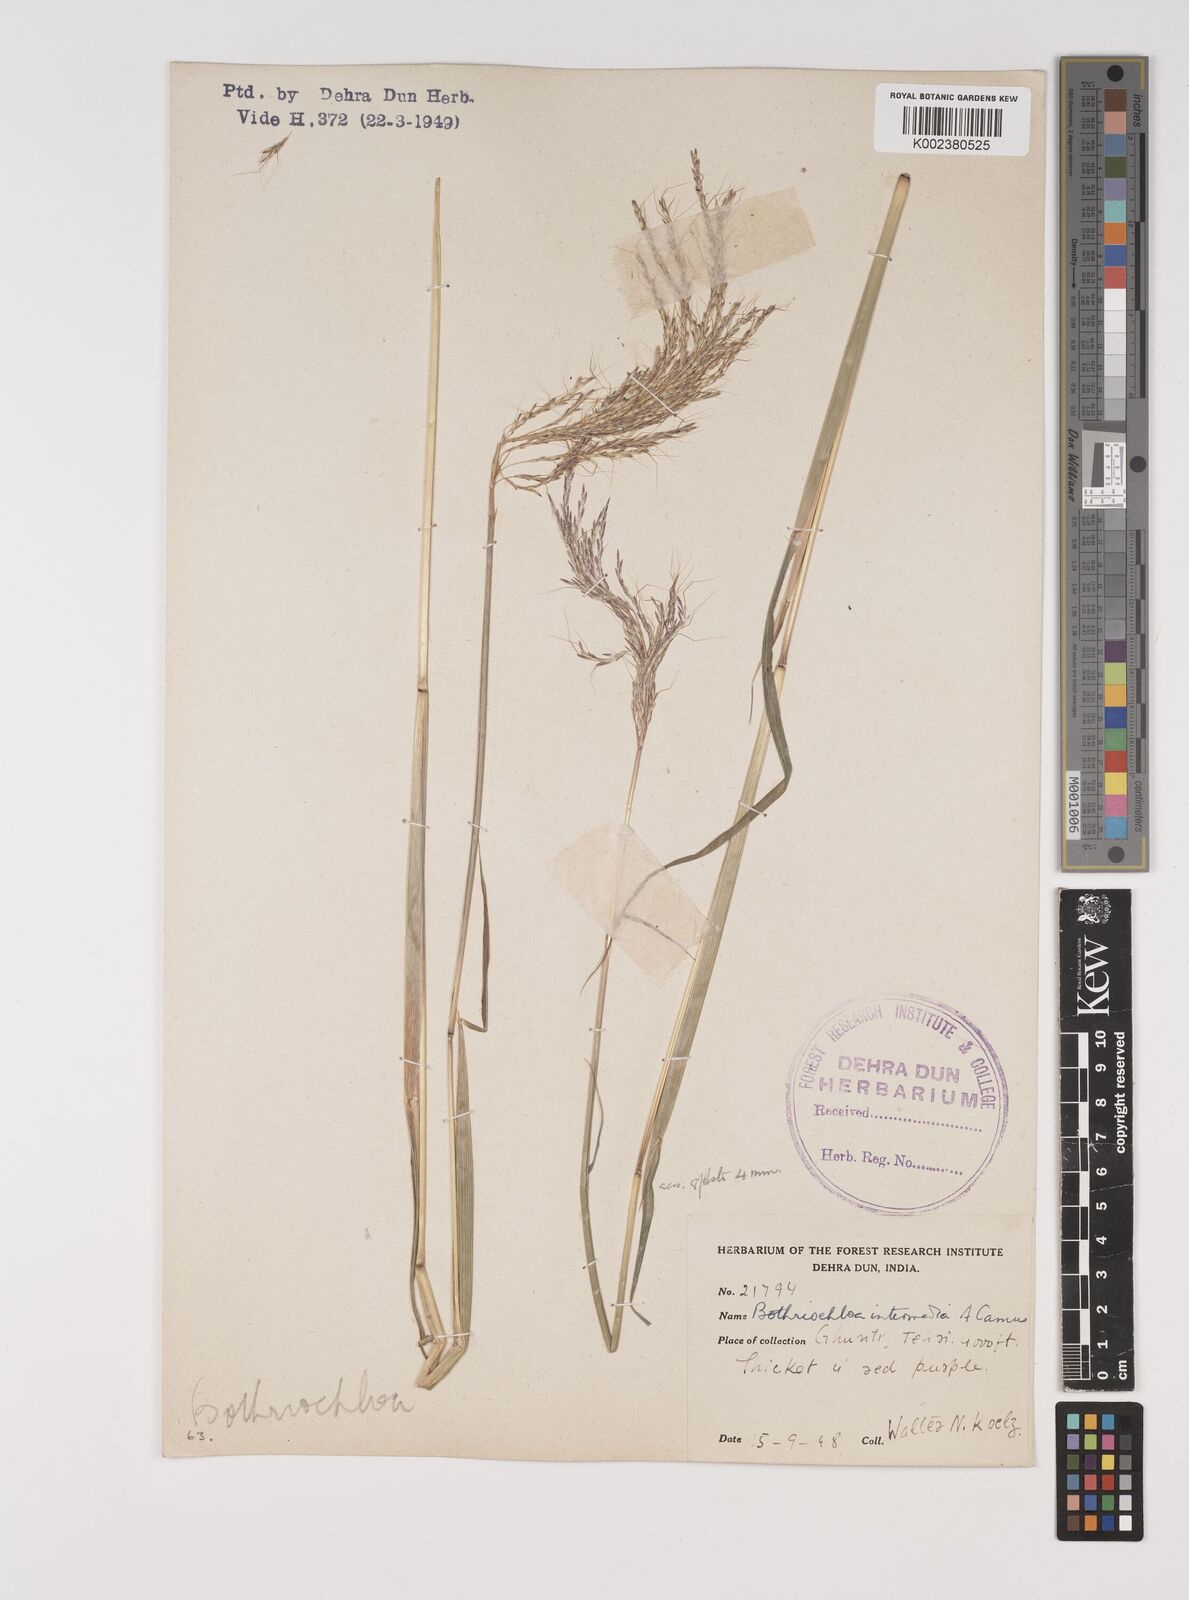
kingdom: Plantae
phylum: Tracheophyta
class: Liliopsida
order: Poales
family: Poaceae
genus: Bothriochloa
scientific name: Bothriochloa bladhii
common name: Caucasian bluestem
